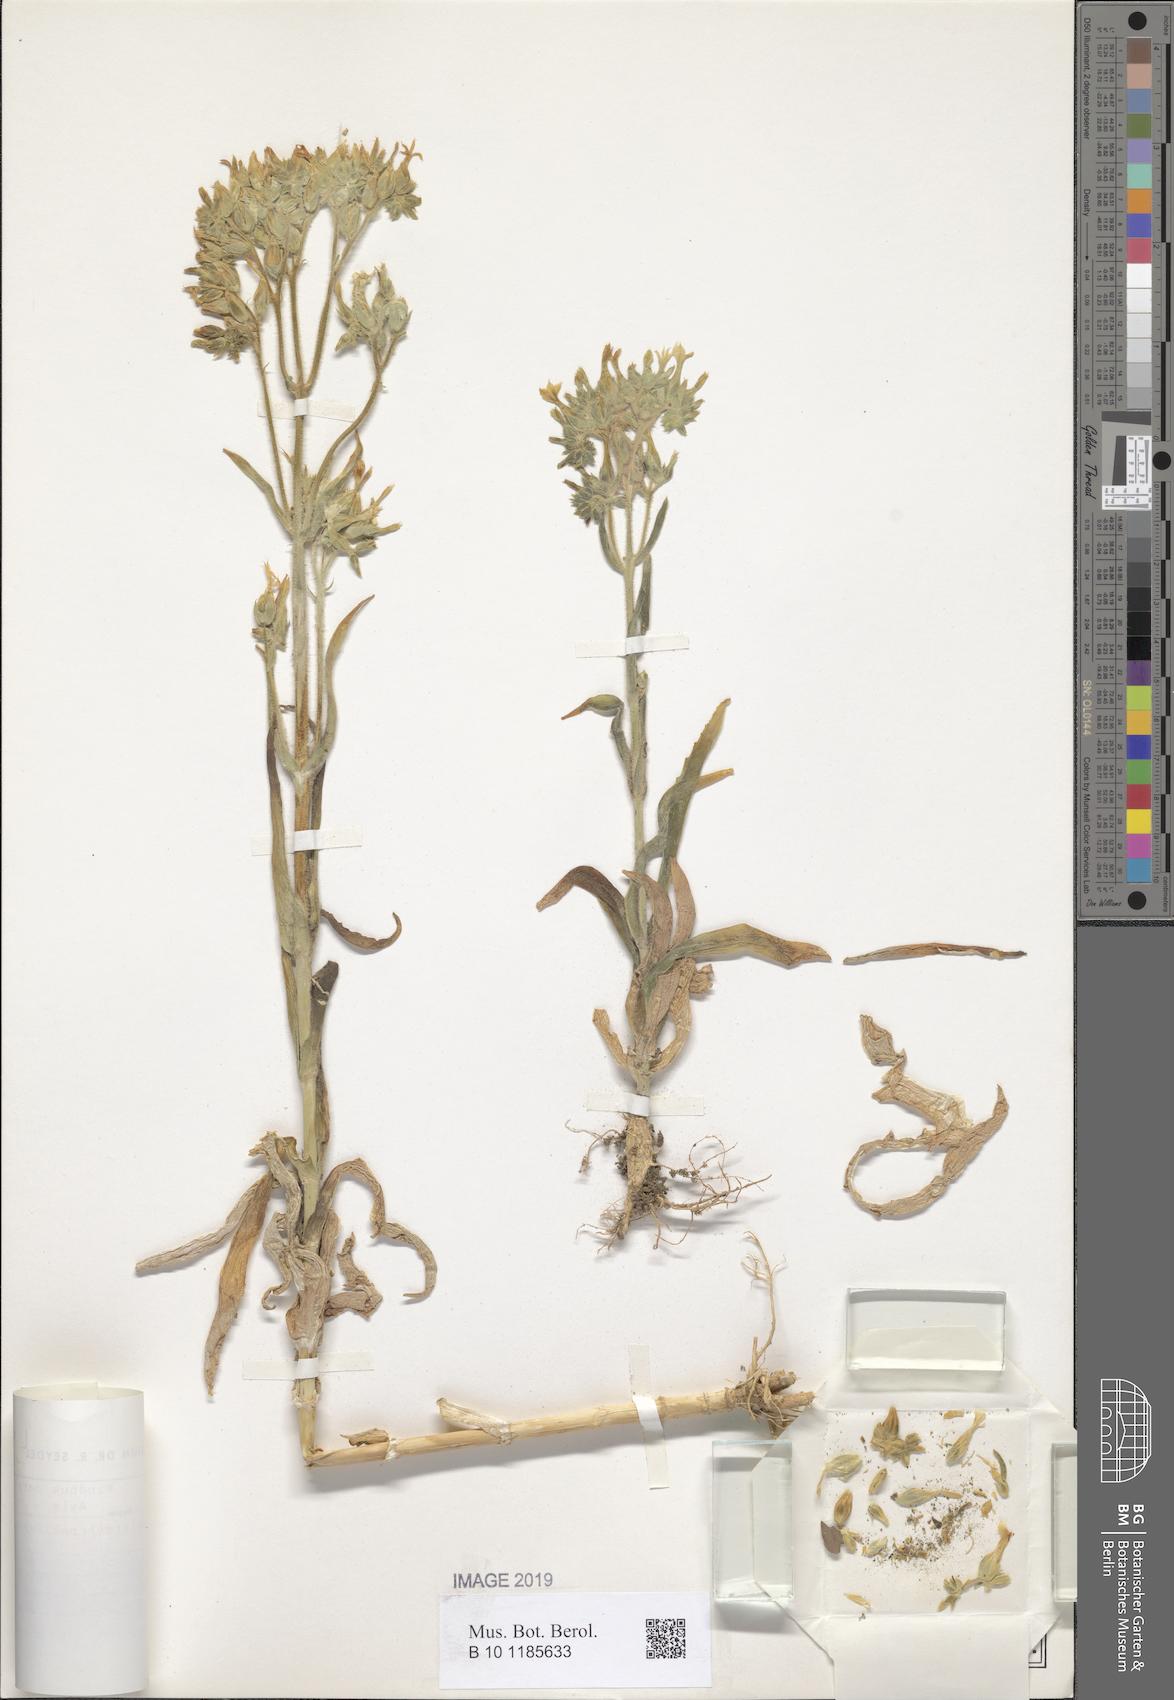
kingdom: Plantae
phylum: Tracheophyta
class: Magnoliopsida
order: Saxifragales
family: Crassulaceae
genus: Kalanchoe
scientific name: Kalanchoe lanceolata
